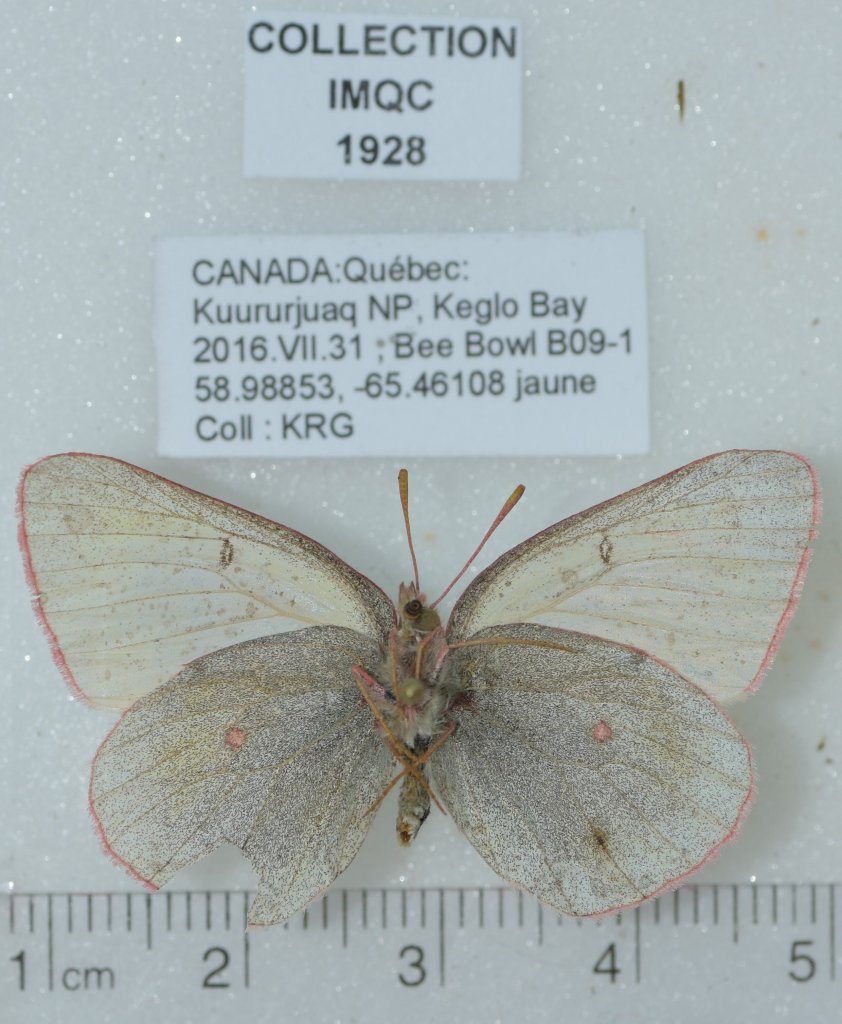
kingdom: Animalia
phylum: Arthropoda
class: Insecta
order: Lepidoptera
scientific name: Lepidoptera
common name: Butterflies
